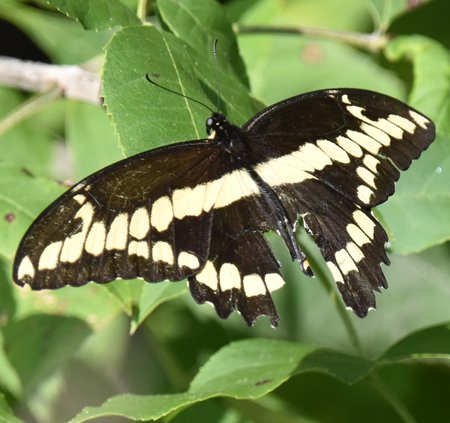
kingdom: Animalia
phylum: Arthropoda
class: Insecta
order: Lepidoptera
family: Papilionidae
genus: Papilio
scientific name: Papilio cresphontes
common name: Eastern Giant Swallowtail
